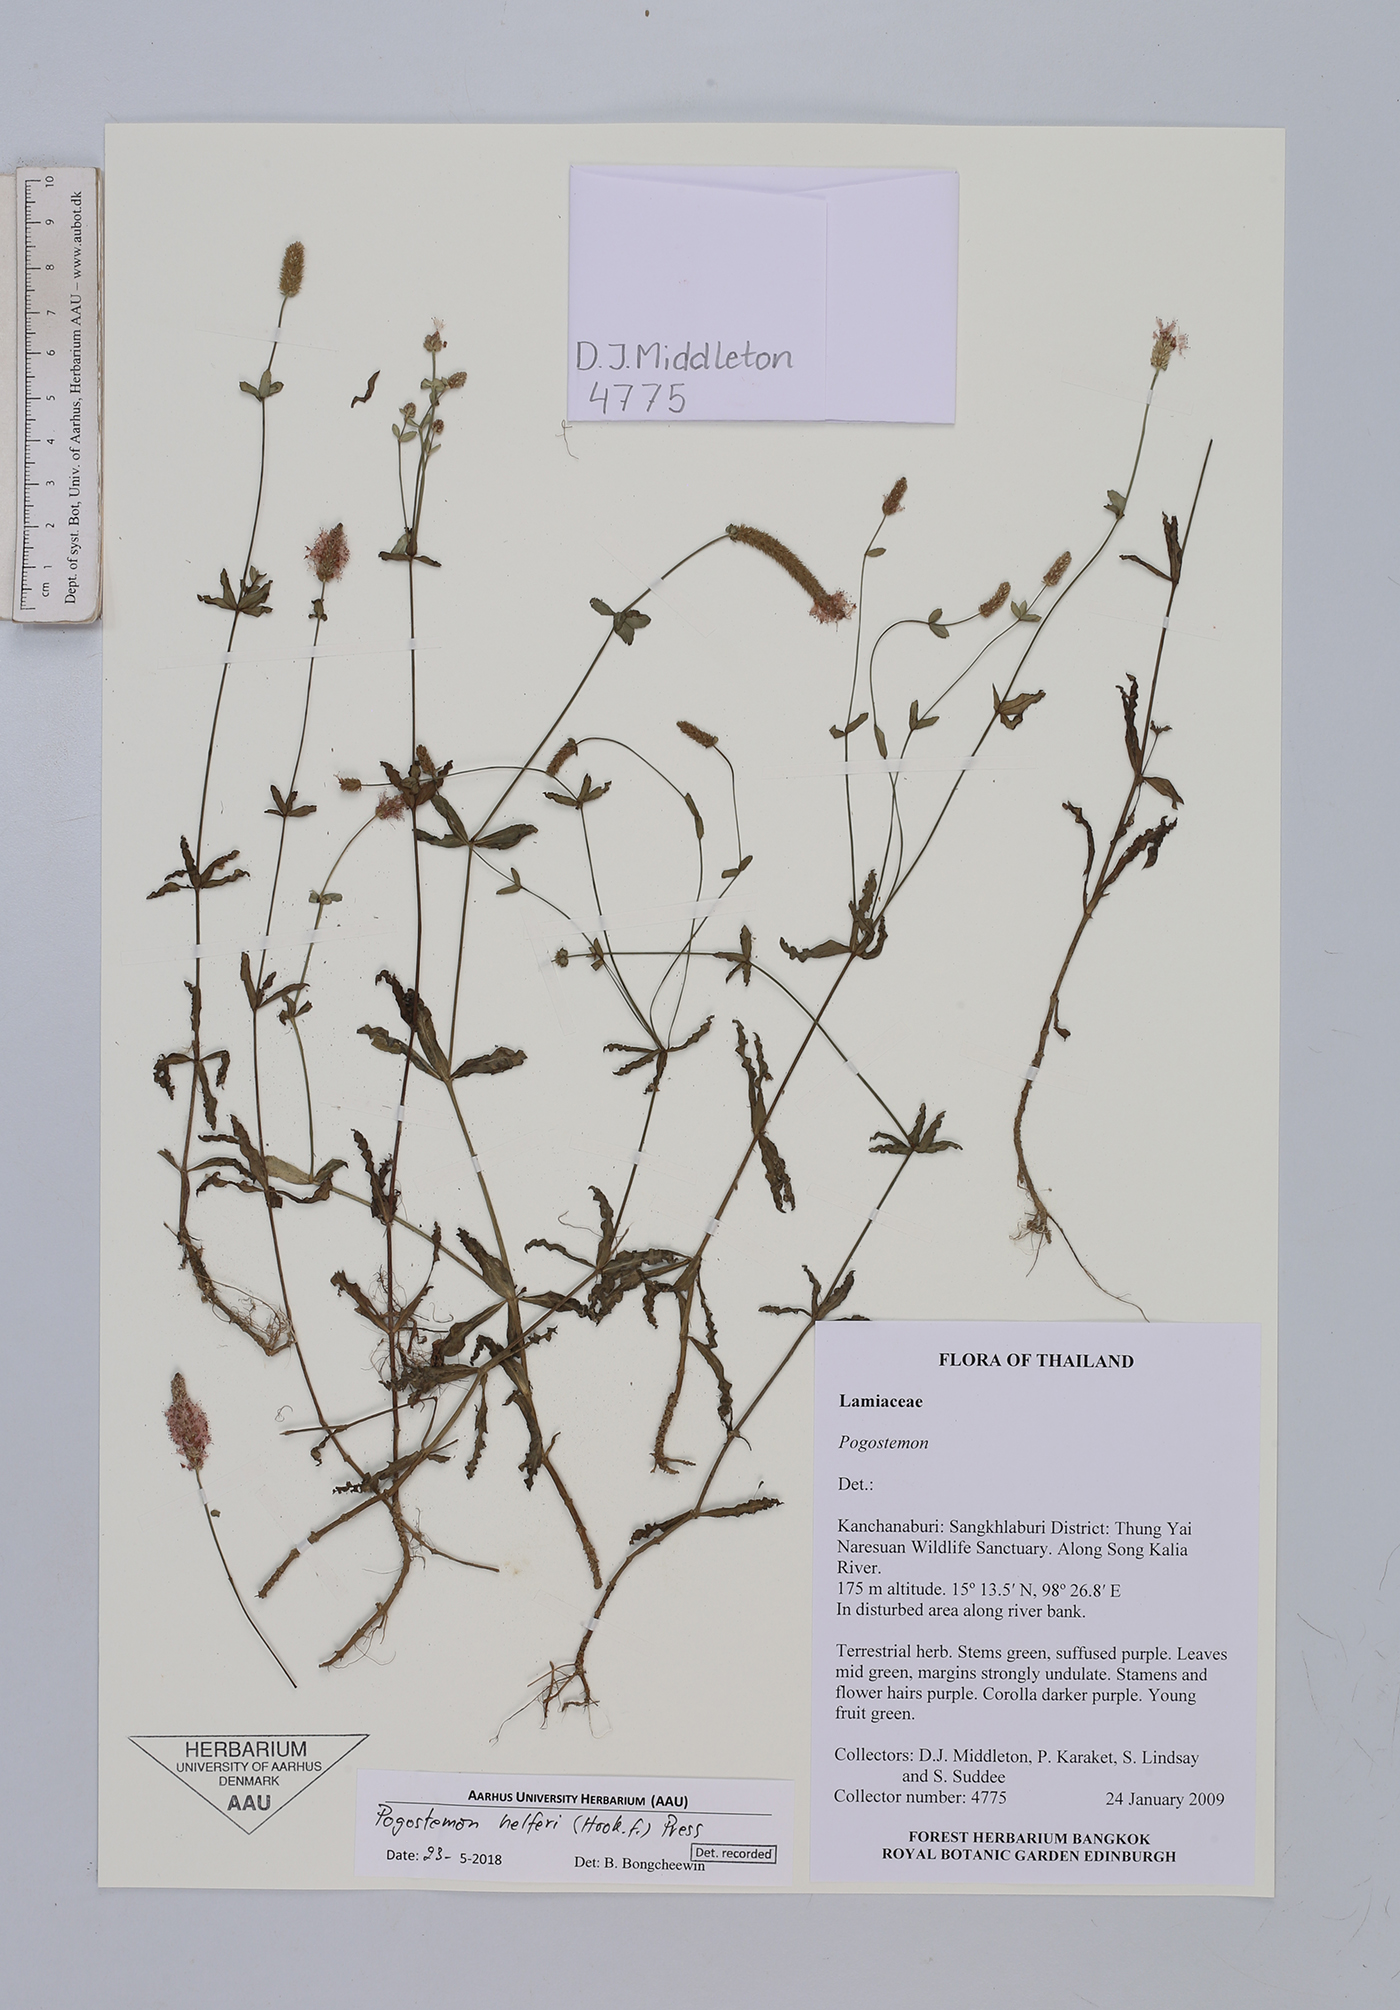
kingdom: Plantae
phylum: Tracheophyta
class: Magnoliopsida
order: Lamiales
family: Lamiaceae
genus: Pogostemon
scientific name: Pogostemon helferi
